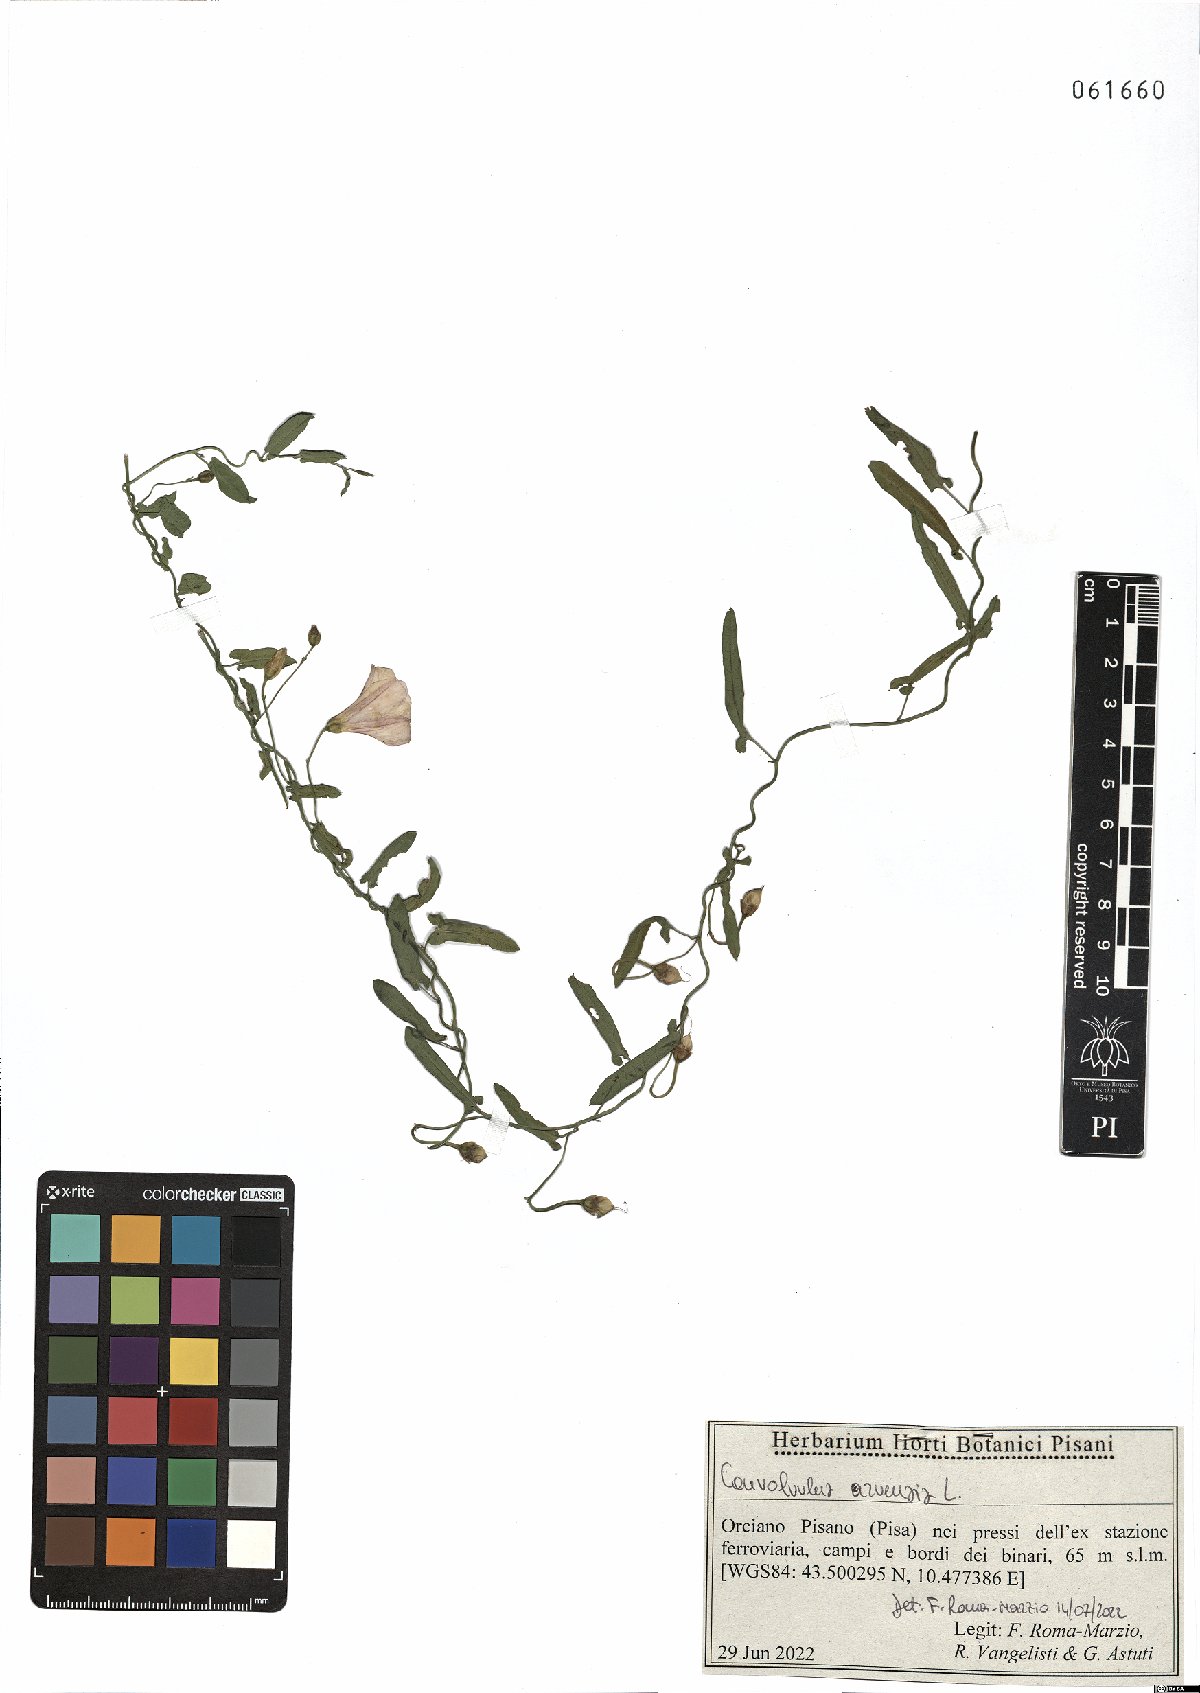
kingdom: Plantae
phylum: Tracheophyta
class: Magnoliopsida
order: Solanales
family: Convolvulaceae
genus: Convolvulus
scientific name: Convolvulus arvensis
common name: Field bindweed
